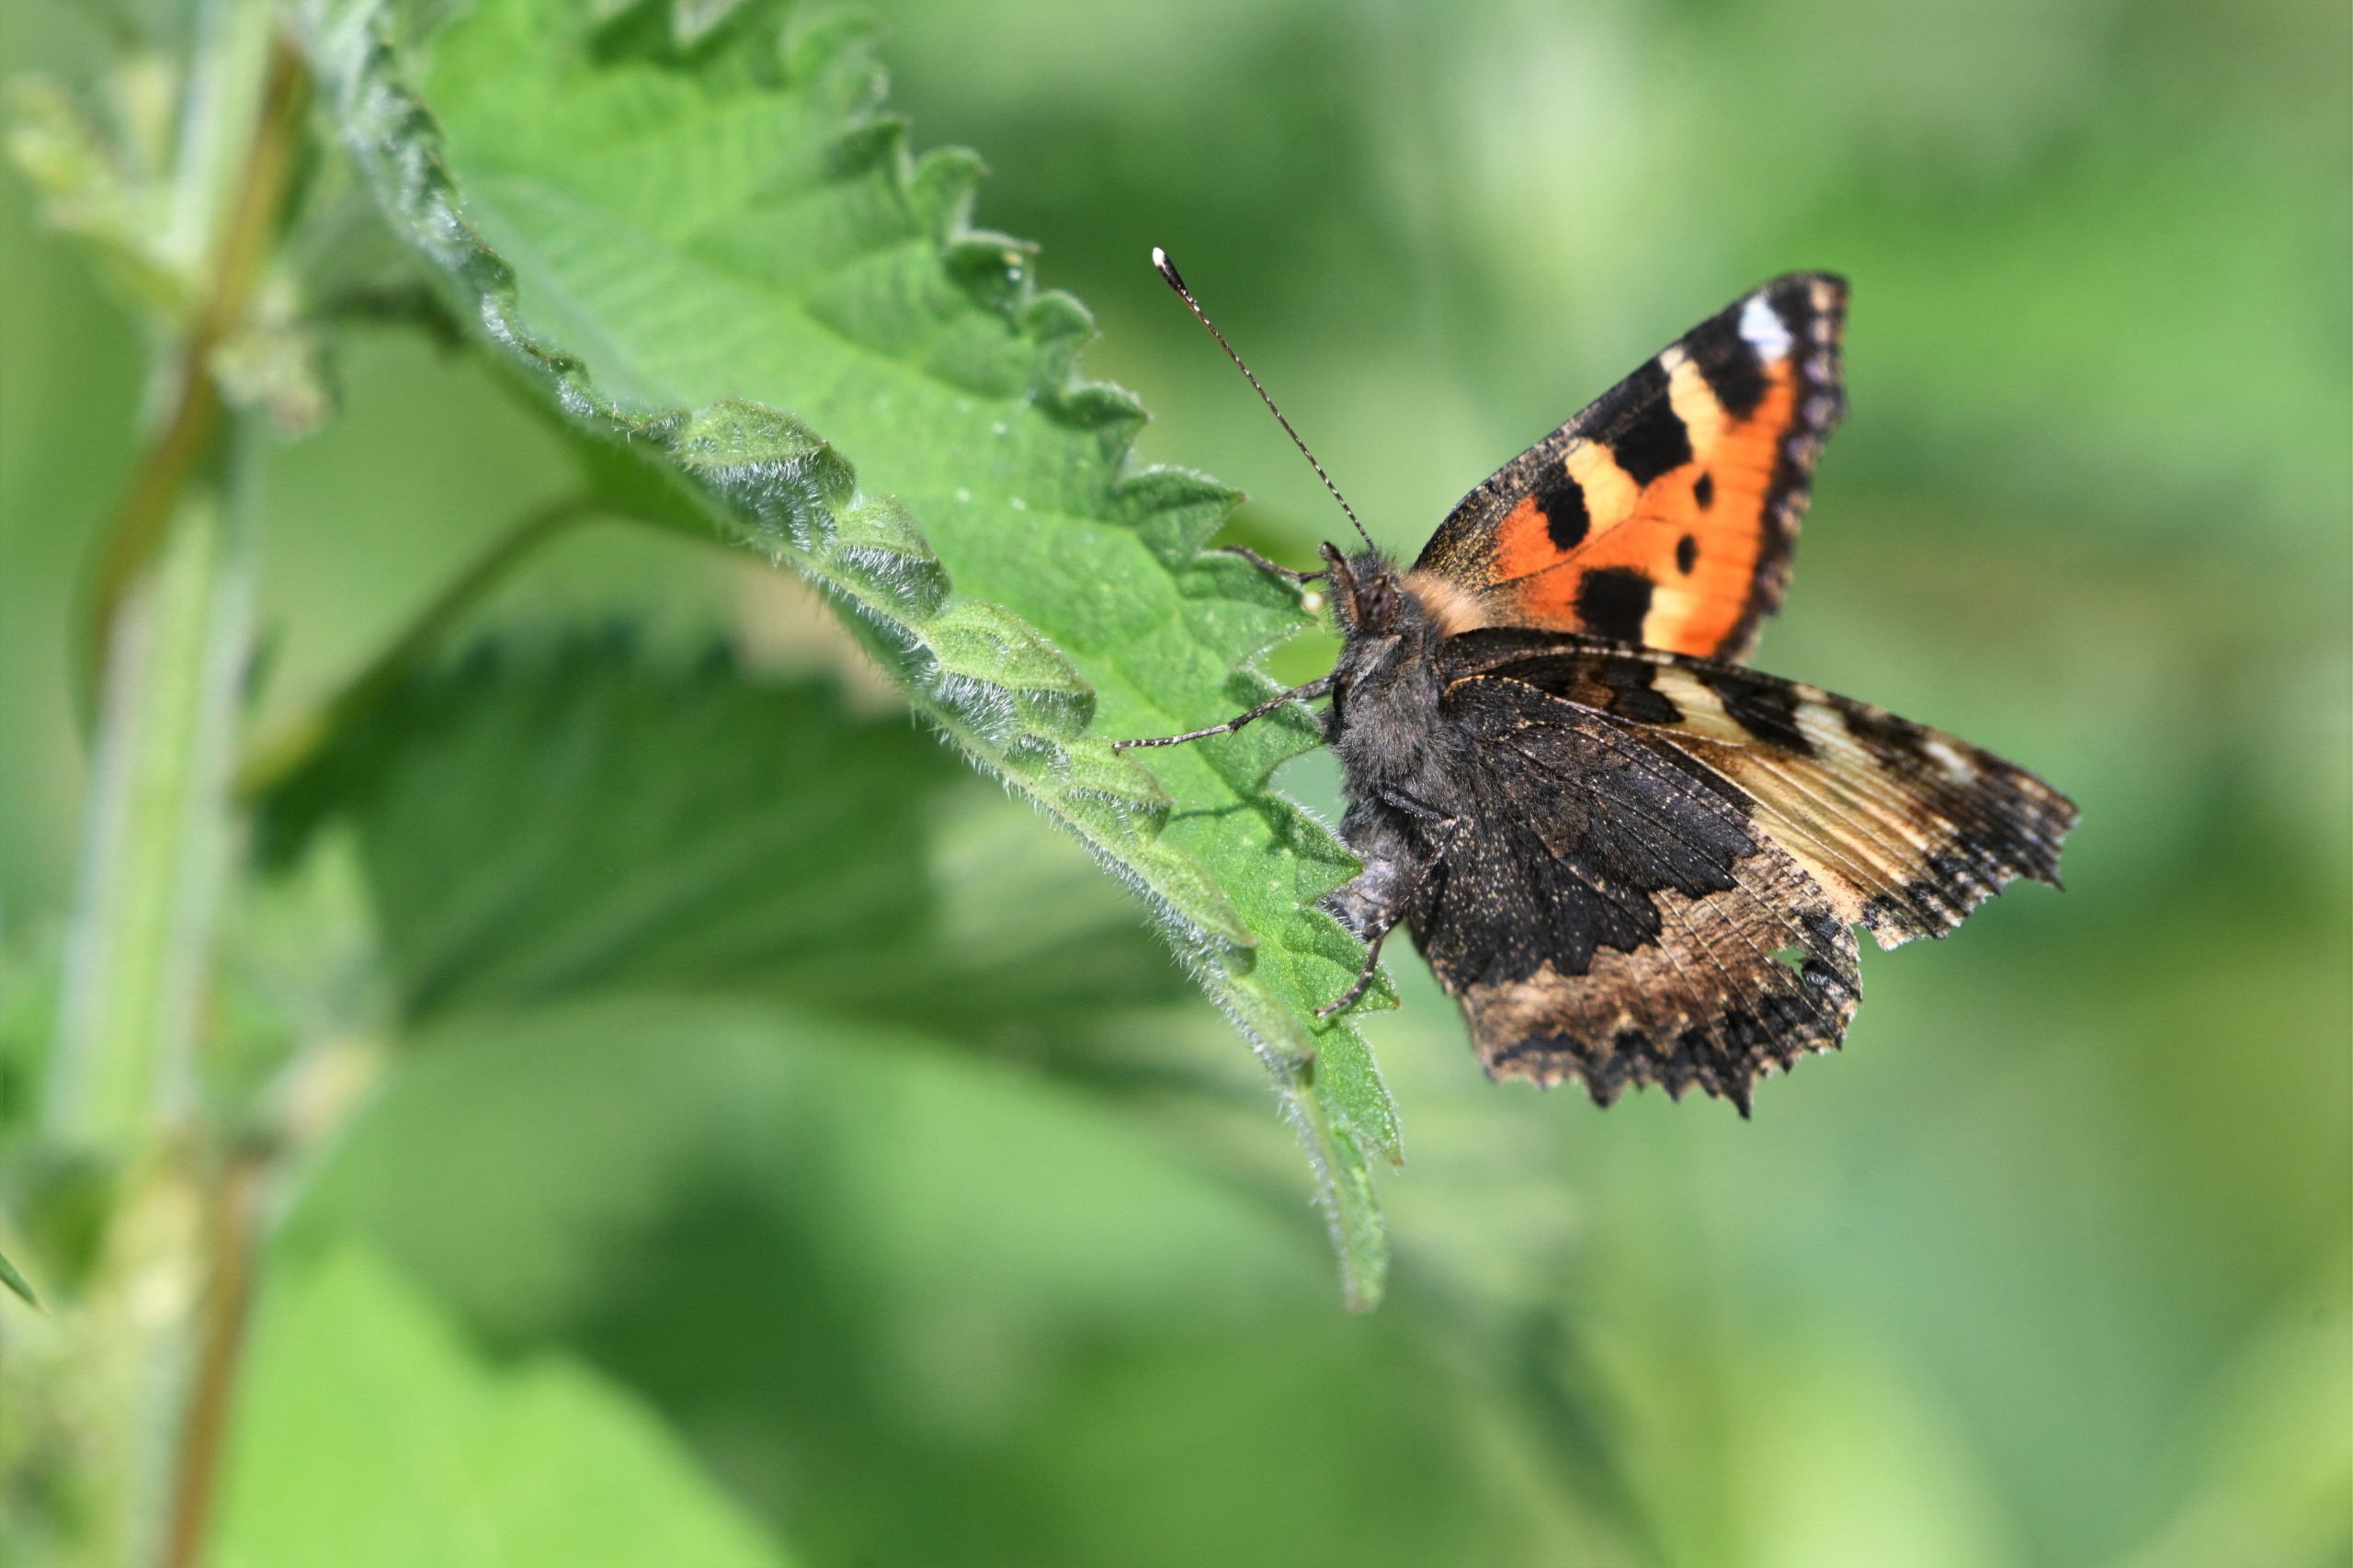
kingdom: Animalia
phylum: Arthropoda
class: Insecta
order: Lepidoptera
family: Nymphalidae
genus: Aglais
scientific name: Aglais urticae
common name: Nældens takvinge
